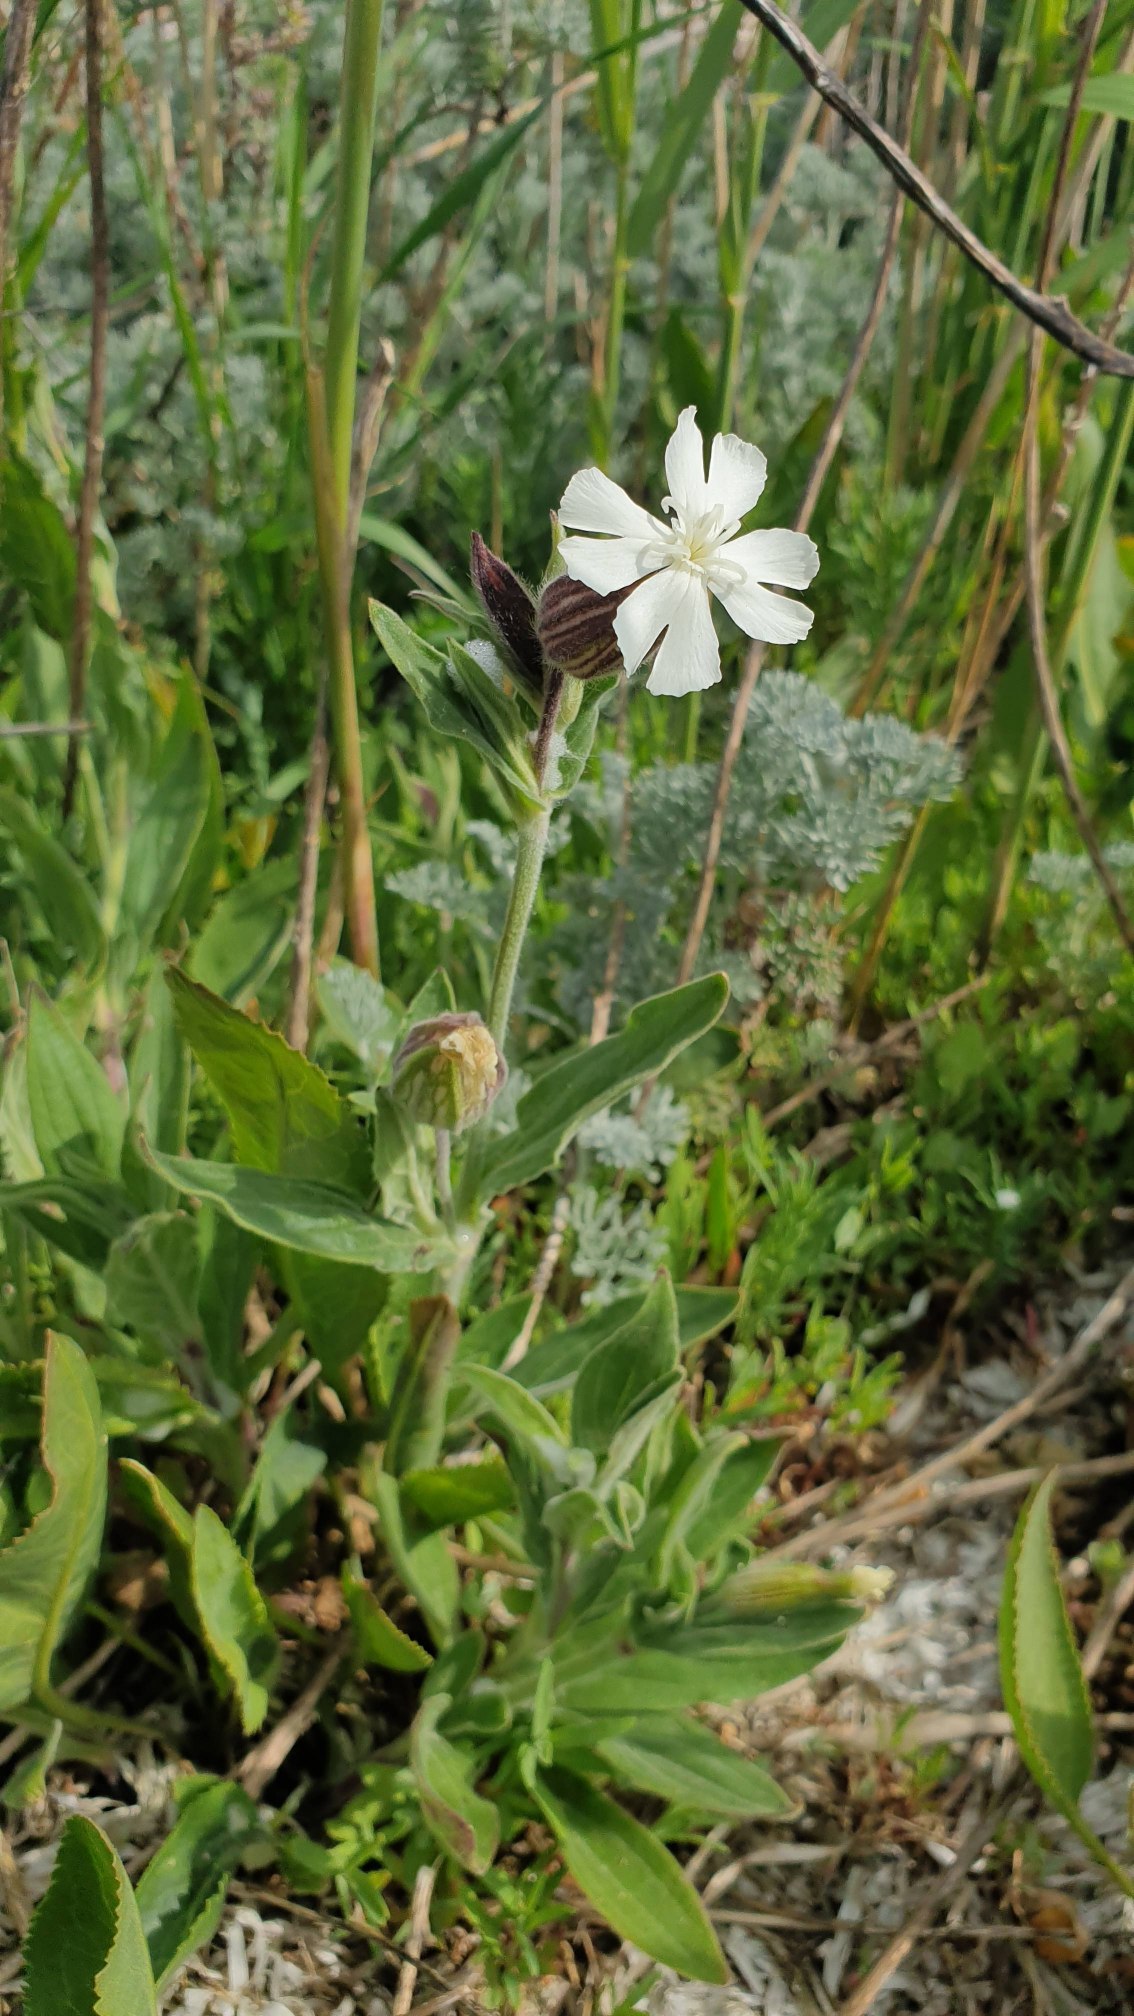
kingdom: Plantae
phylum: Tracheophyta
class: Magnoliopsida
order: Caryophyllales
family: Caryophyllaceae
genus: Silene
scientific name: Silene latifolia
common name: Aftenpragtstjerne
